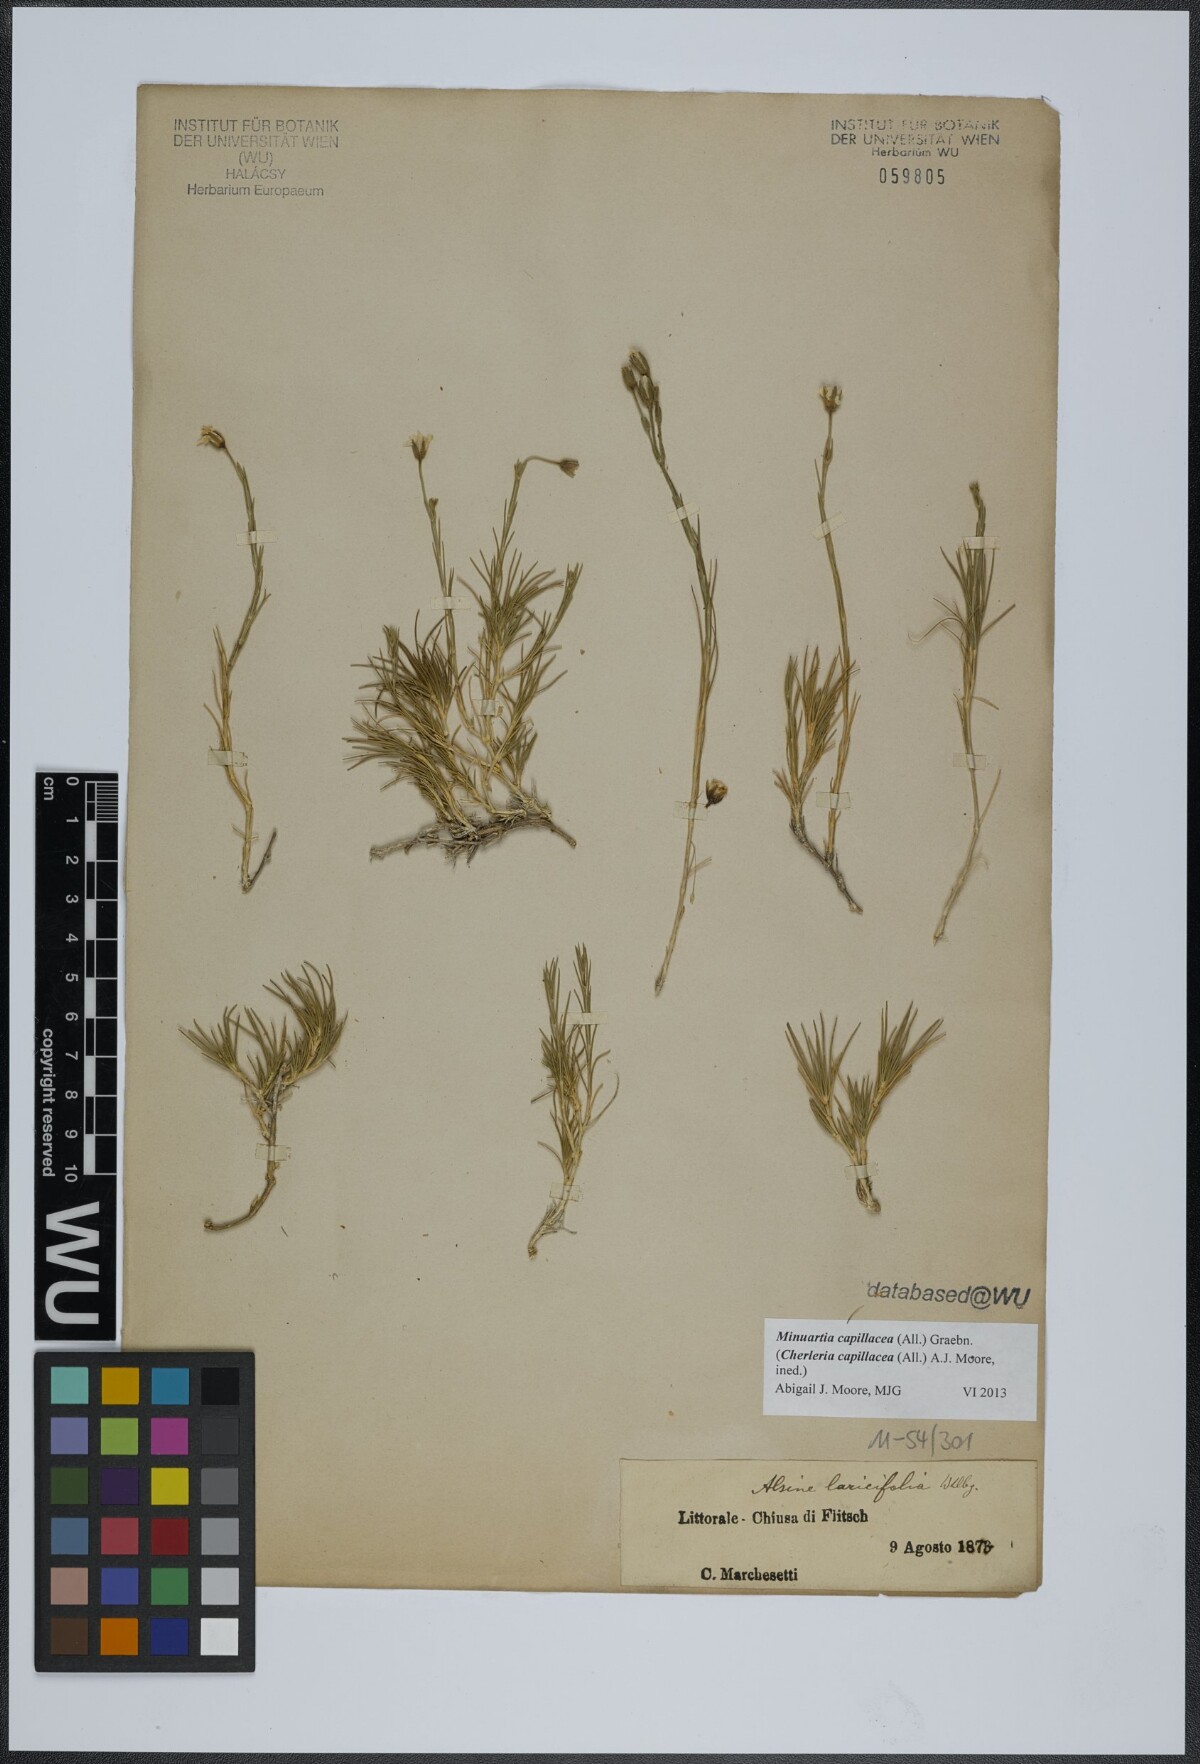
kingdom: Plantae
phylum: Tracheophyta
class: Magnoliopsida
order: Caryophyllales
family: Caryophyllaceae
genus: Cherleria
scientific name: Cherleria capillacea
